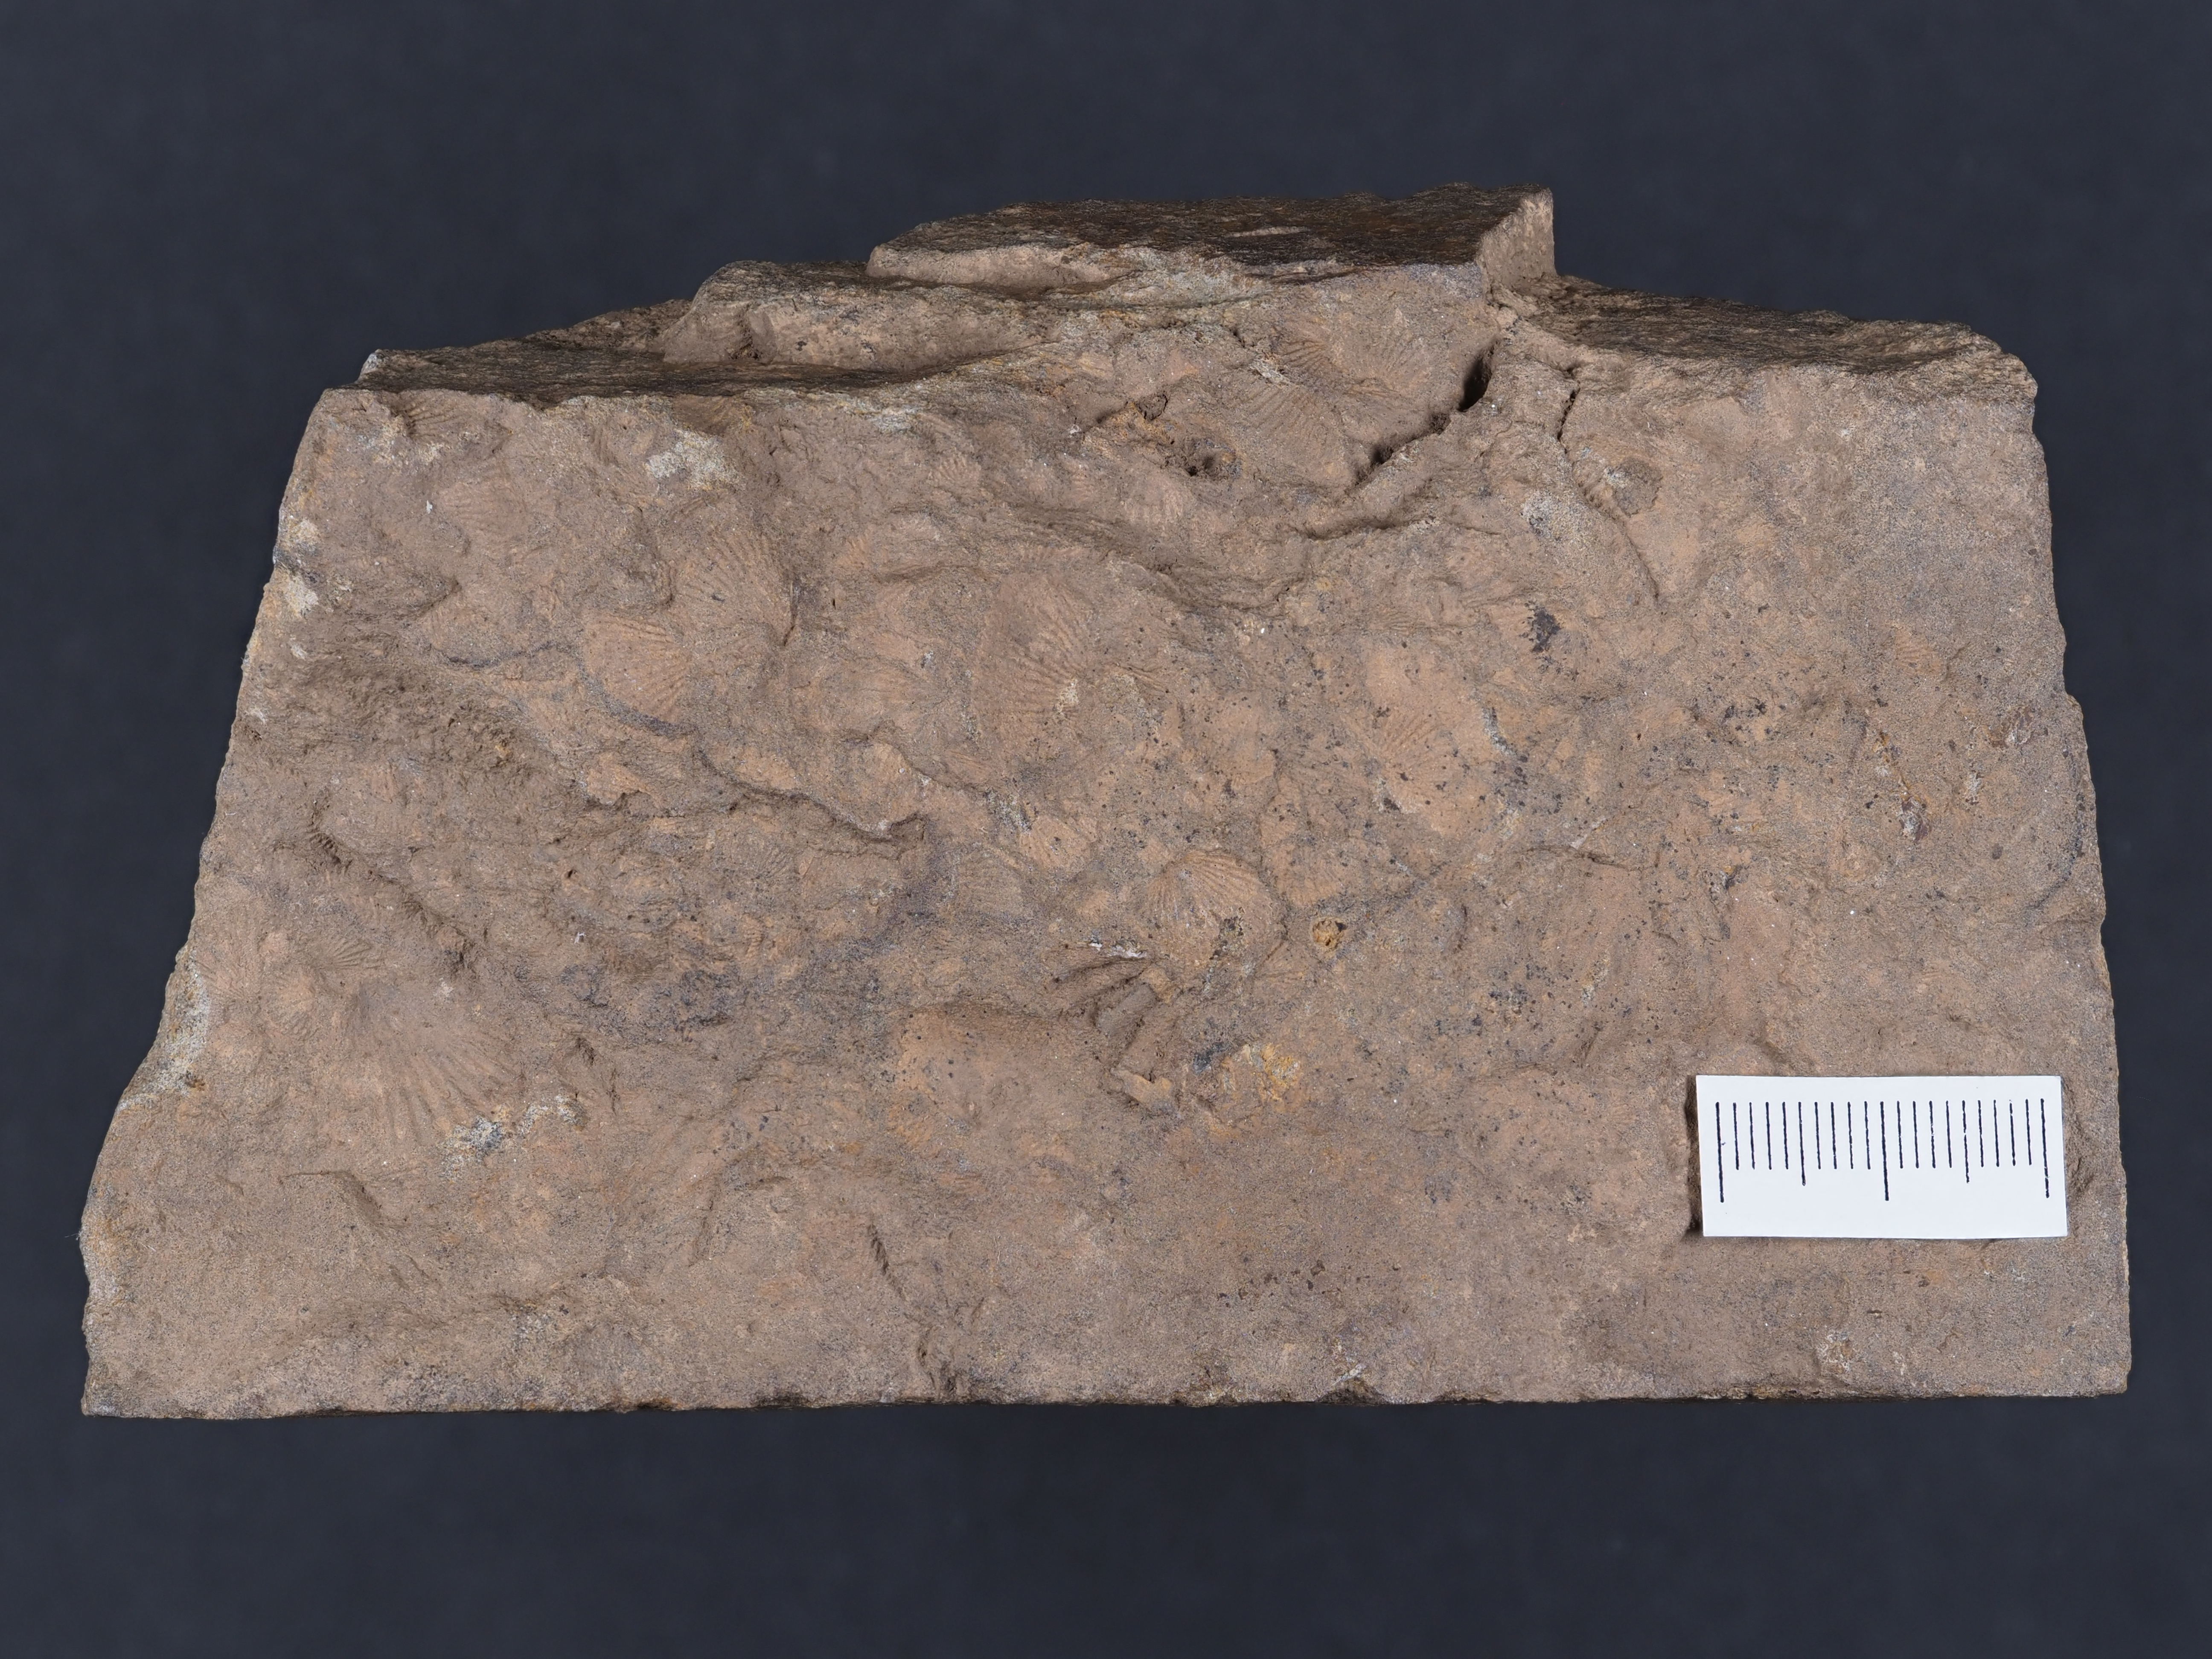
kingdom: Animalia
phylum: Cnidaria
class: Anthozoa
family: Micheliniidae
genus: Pleurodictyum
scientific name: Pleurodictyum
